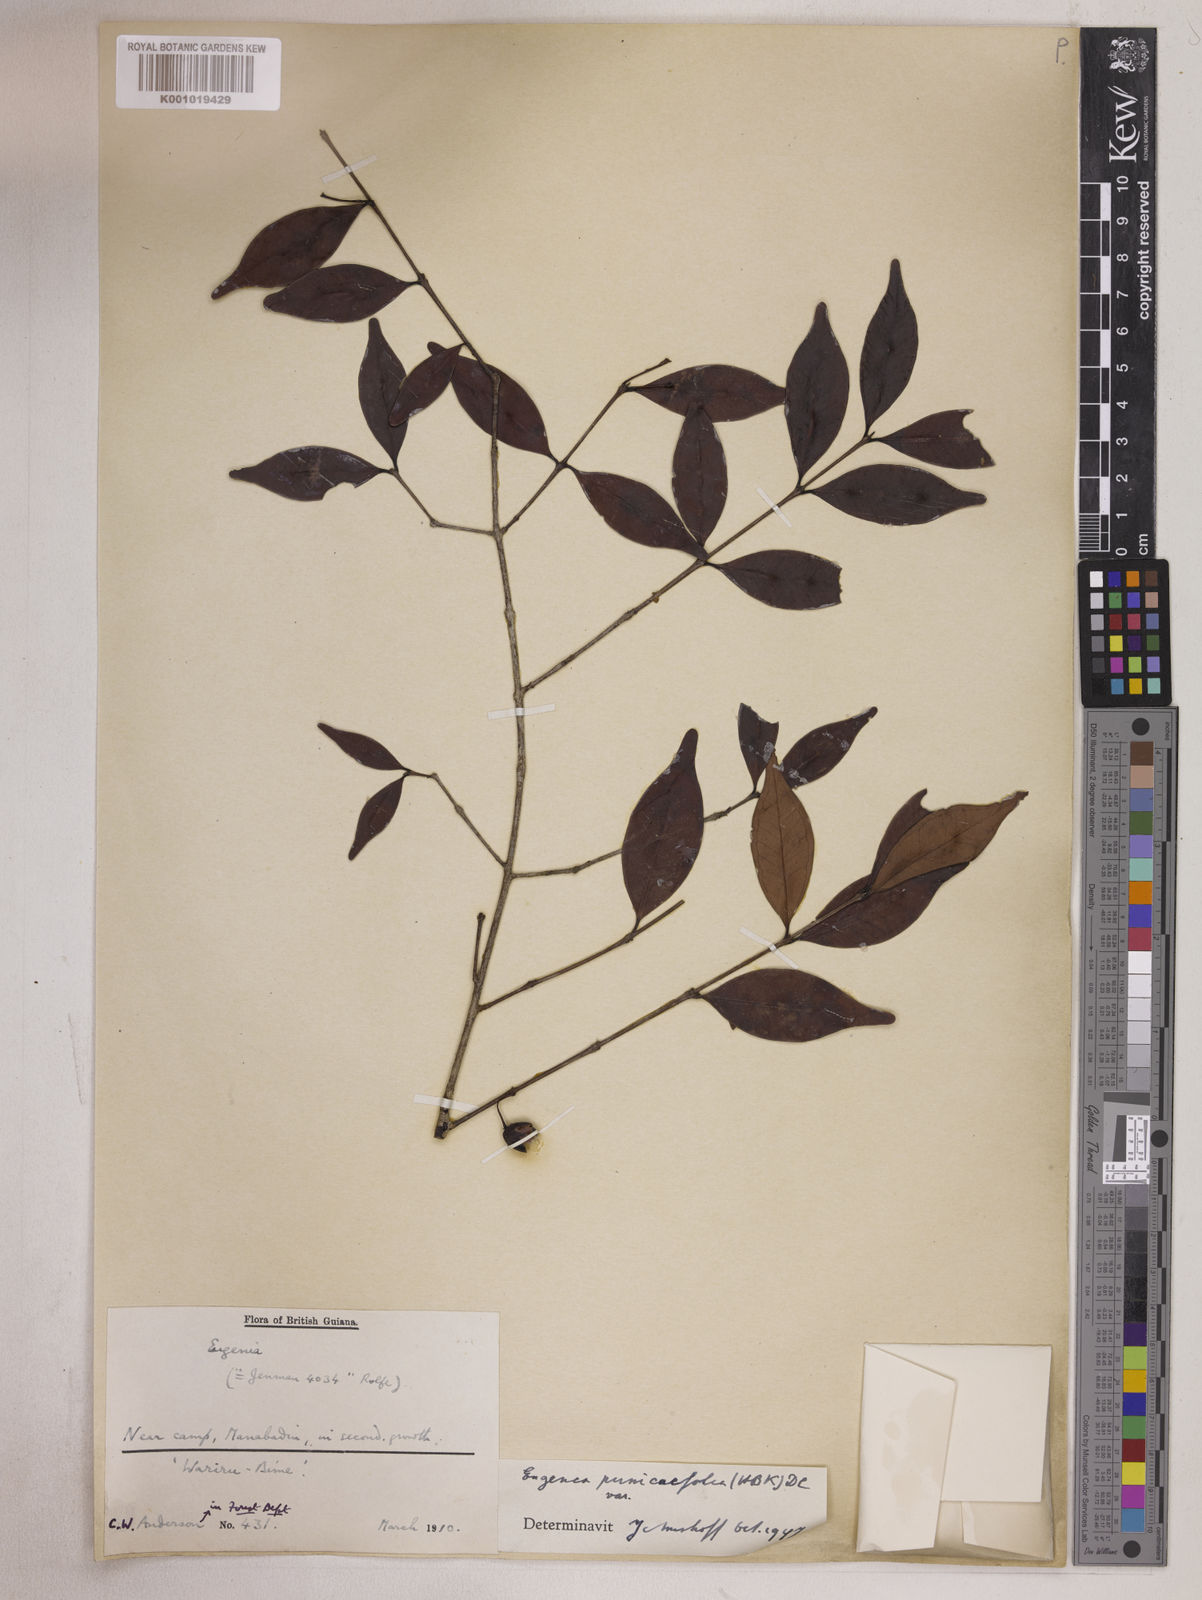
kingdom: Plantae
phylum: Tracheophyta
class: Magnoliopsida
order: Myrtales
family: Myrtaceae
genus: Eugenia
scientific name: Eugenia punicifolia
